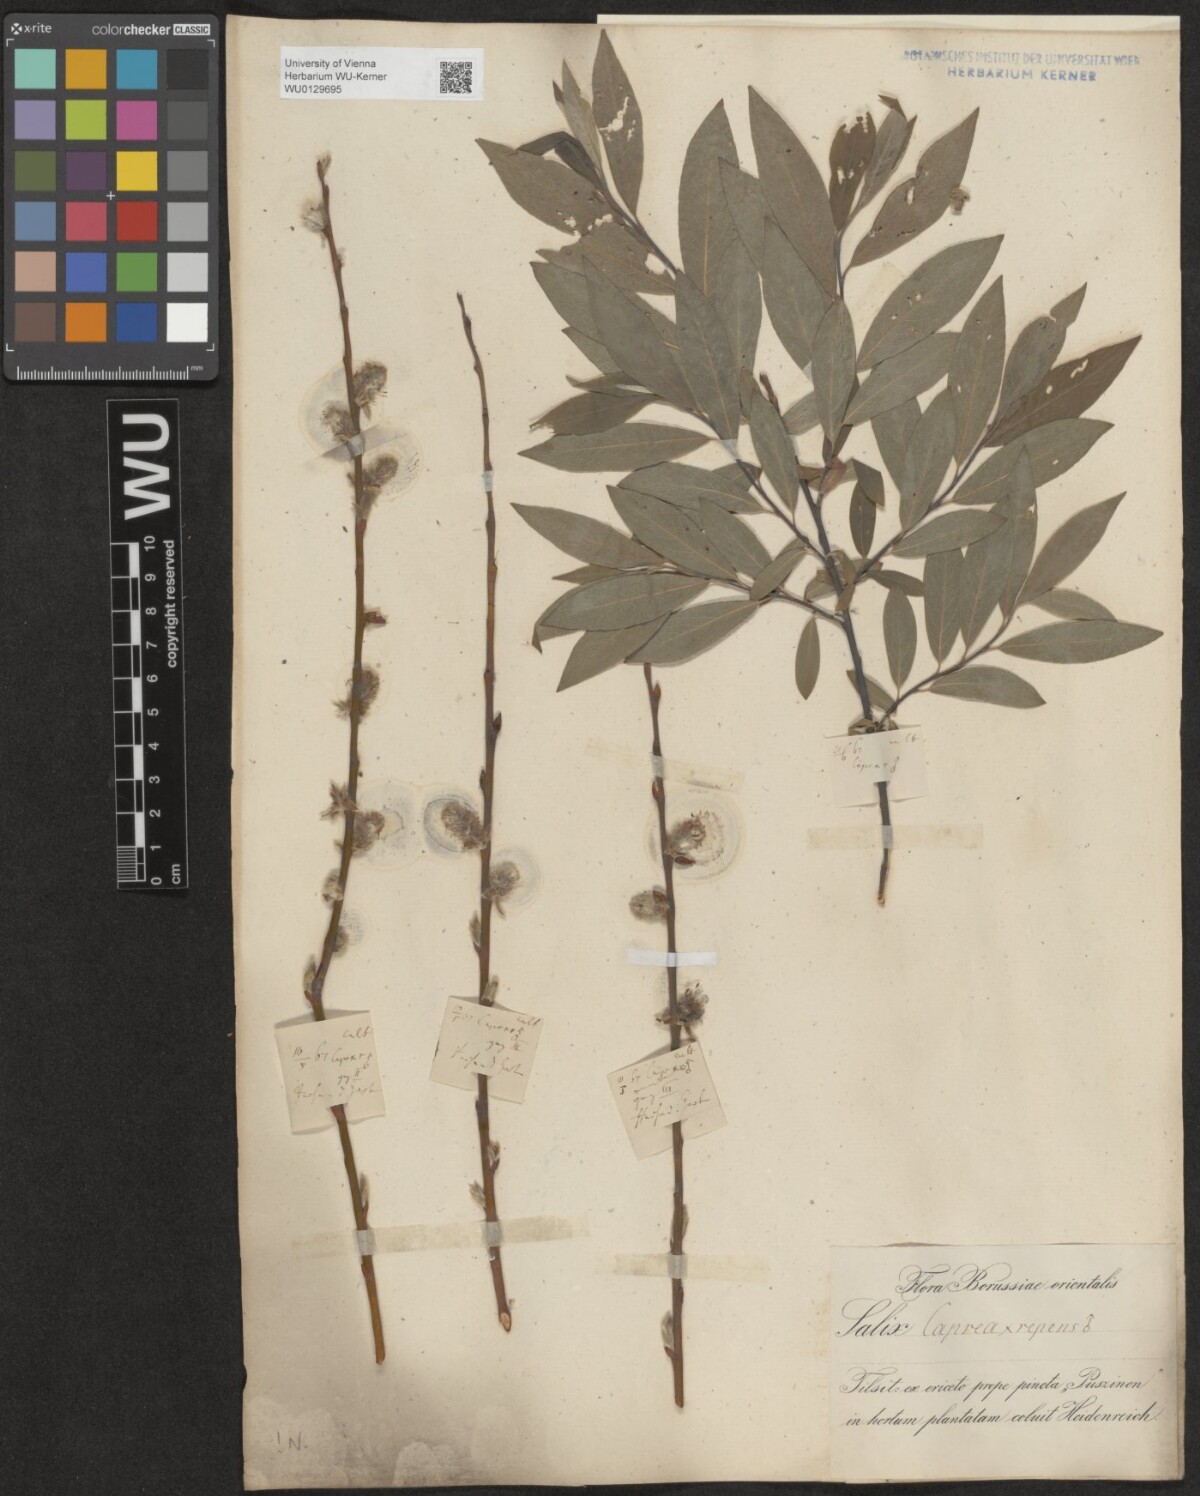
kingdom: Plantae
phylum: Tracheophyta
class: Magnoliopsida
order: Malpighiales
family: Salicaceae
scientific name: Salicaceae
